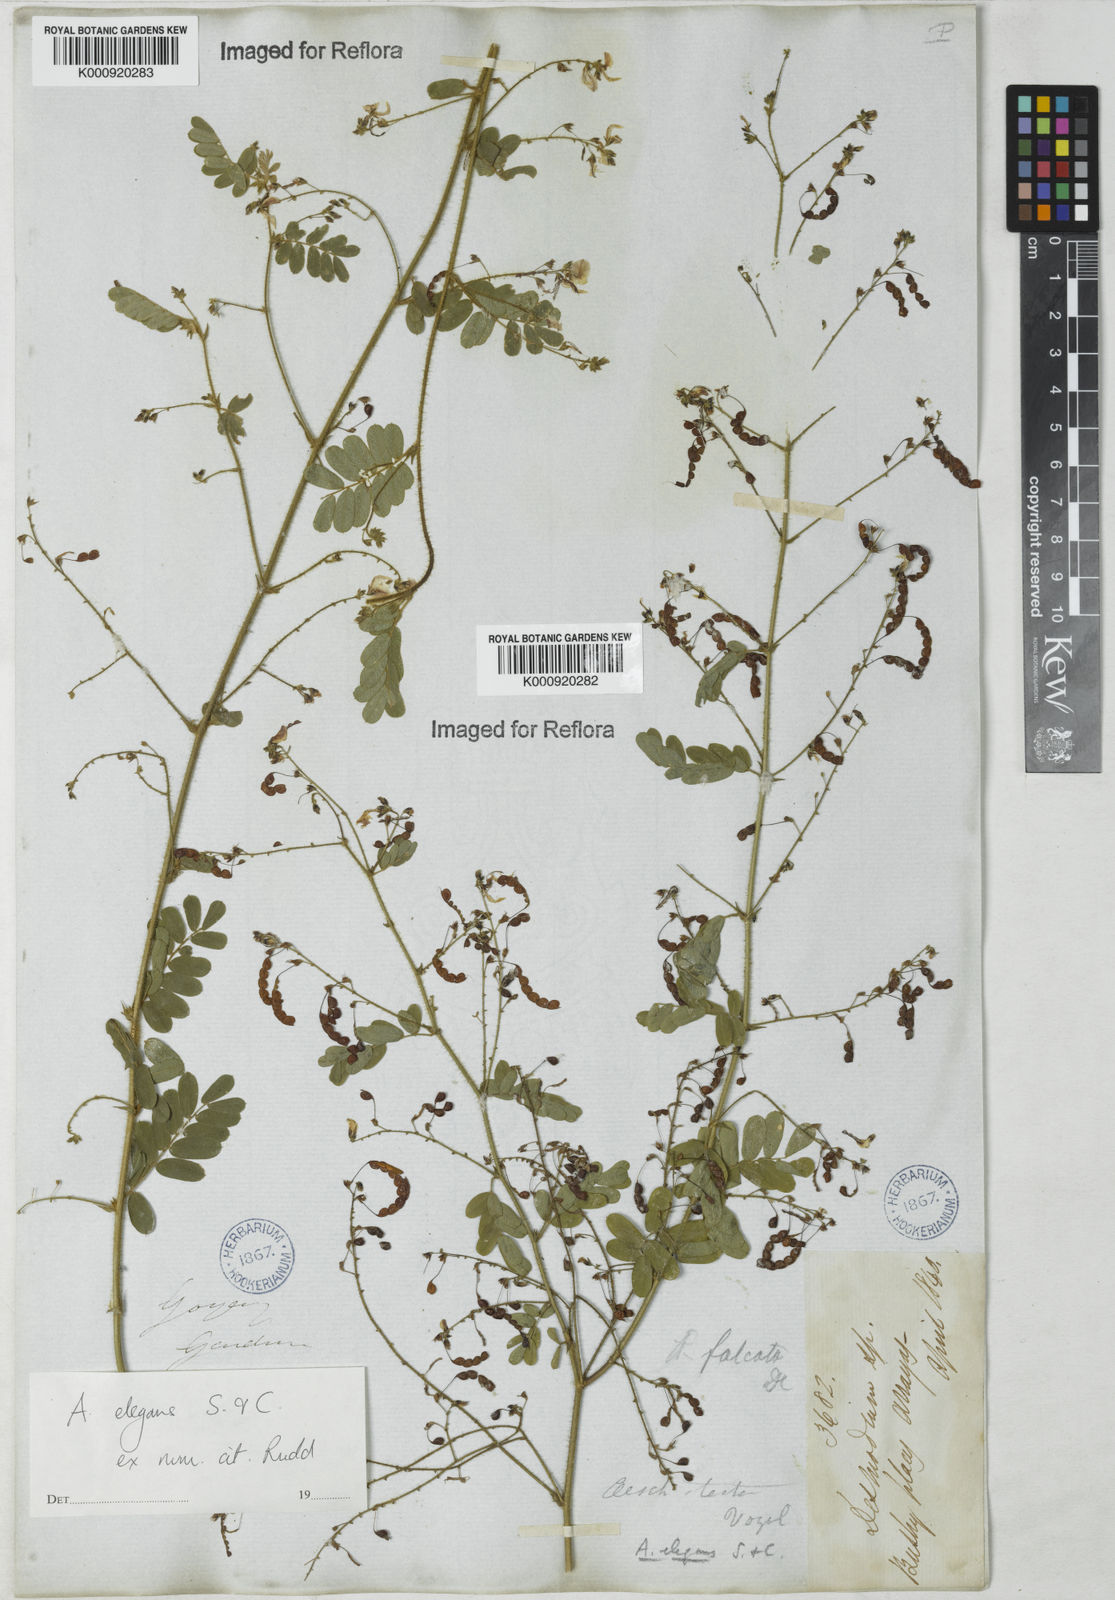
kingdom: Plantae
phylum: Tracheophyta
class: Magnoliopsida
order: Fabales
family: Fabaceae
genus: Ctenodon
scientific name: Ctenodon elegans
